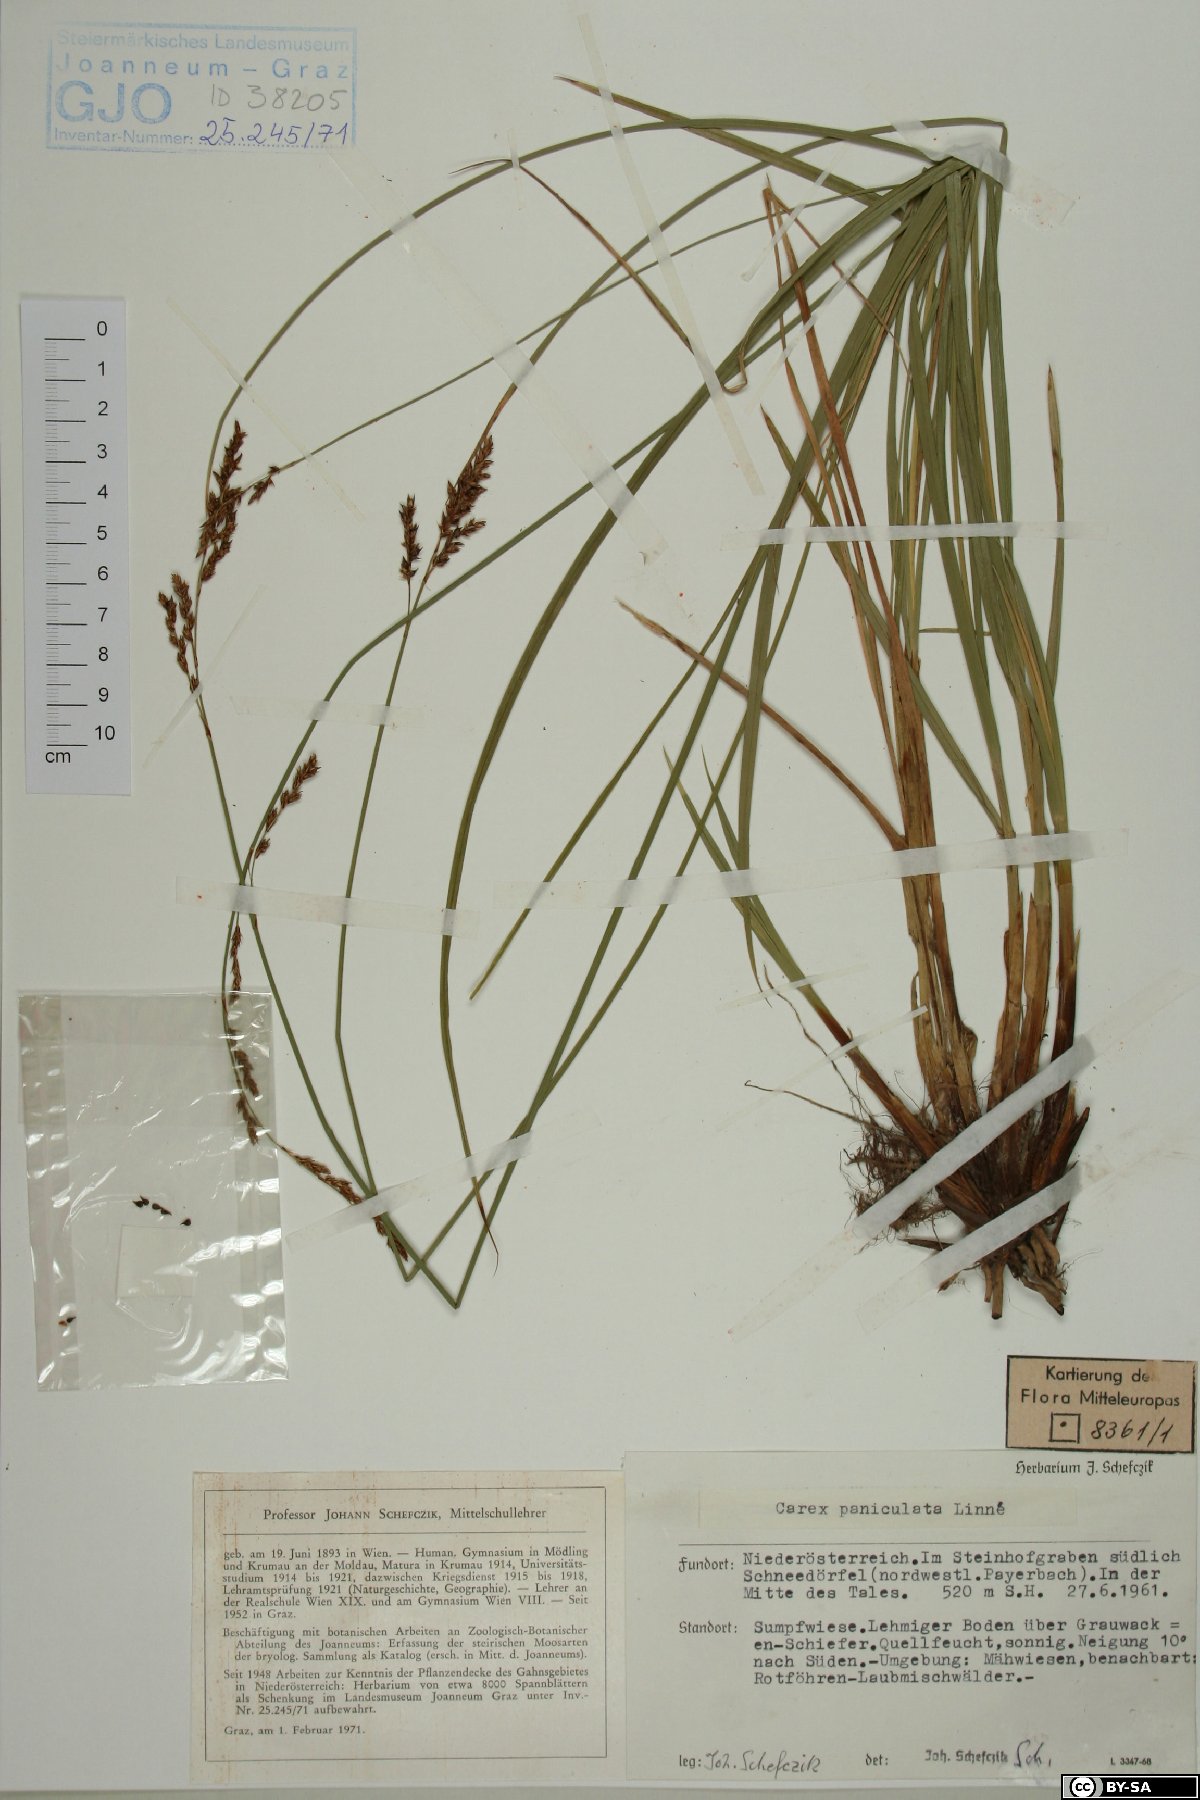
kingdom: Plantae
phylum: Tracheophyta
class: Liliopsida
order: Poales
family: Cyperaceae
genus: Carex
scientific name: Carex paniculata
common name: Greater tussock-sedge
